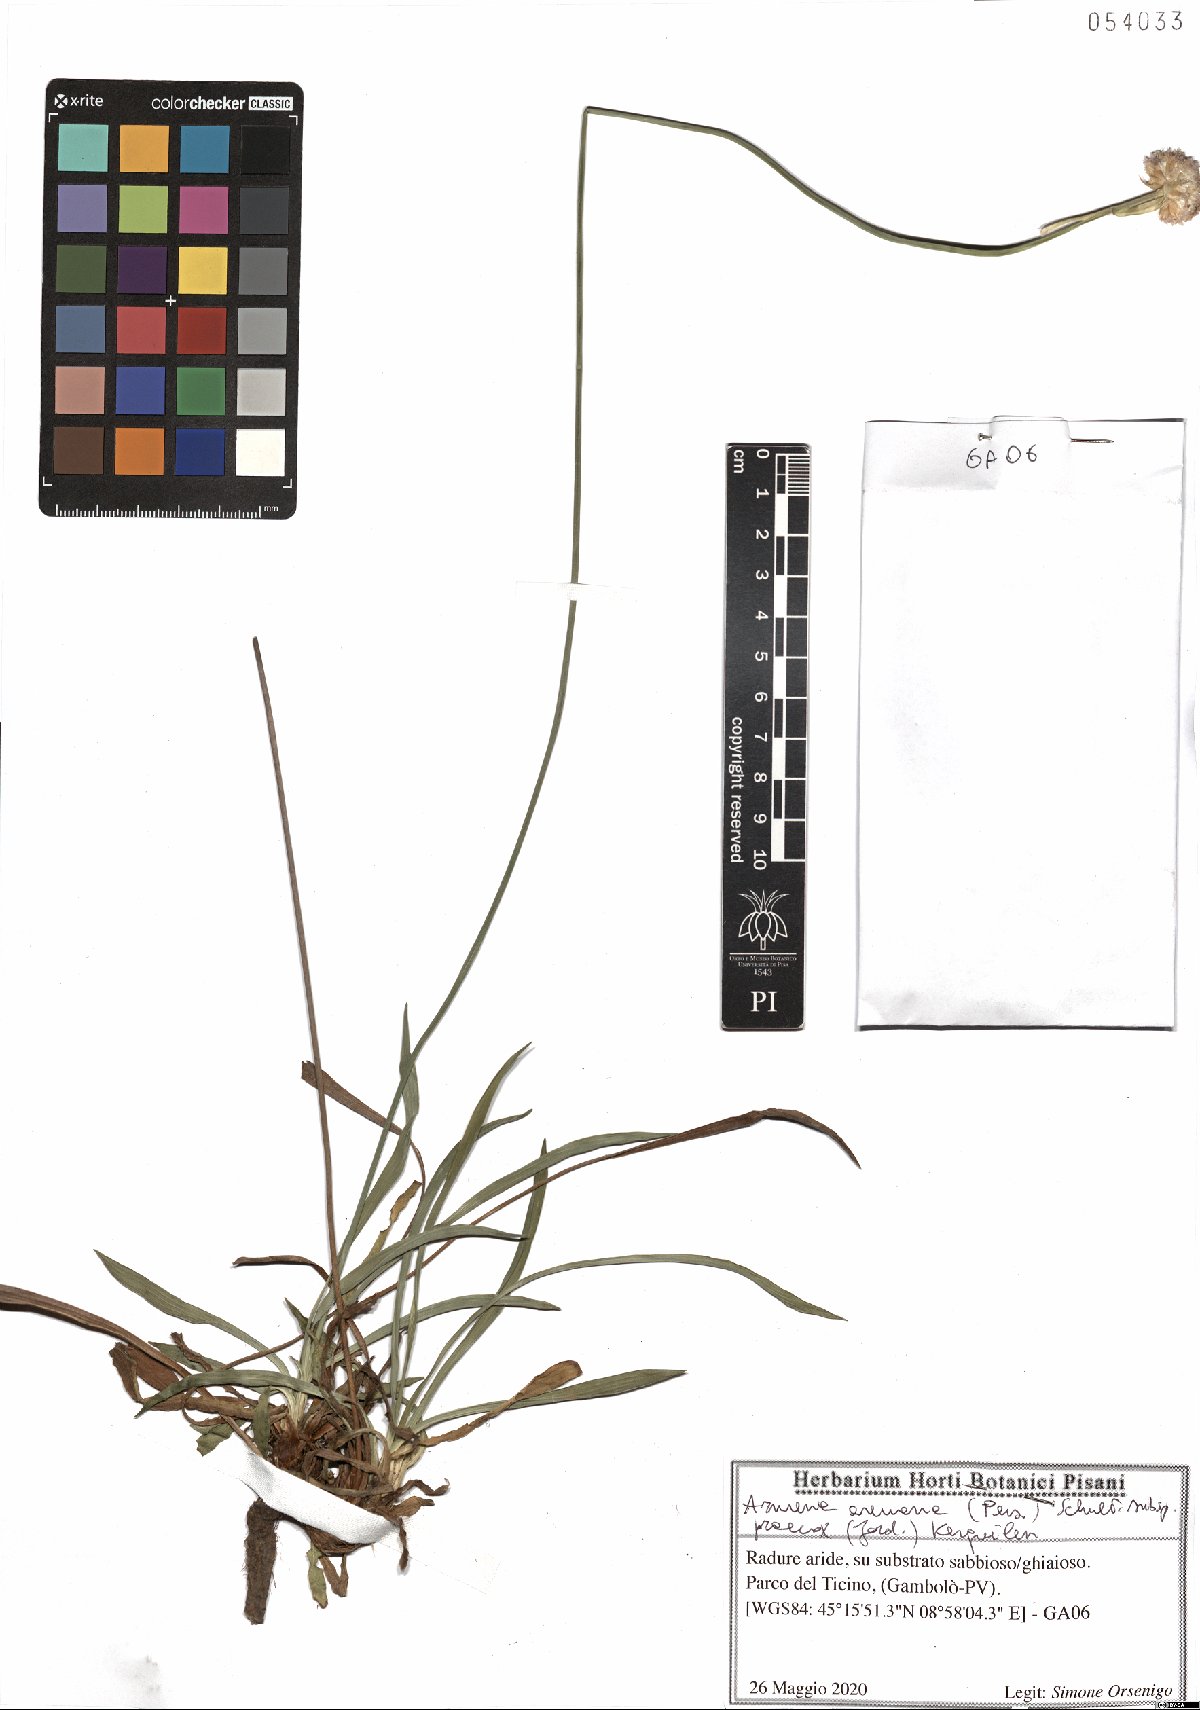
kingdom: Plantae
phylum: Tracheophyta
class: Magnoliopsida
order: Caryophyllales
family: Plumbaginaceae
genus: Armeria
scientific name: Armeria arenaria
